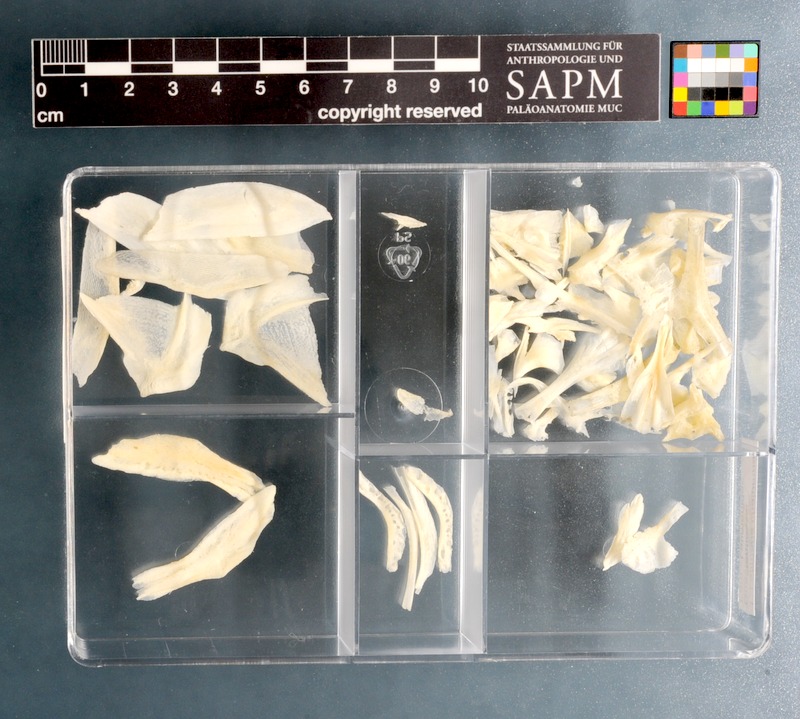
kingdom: Animalia
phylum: Chordata
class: Coelacanthi
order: Coelacanthiformes
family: Latimeriidae
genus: Latimeria
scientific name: Latimeria chalumnae
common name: Coelacanth
